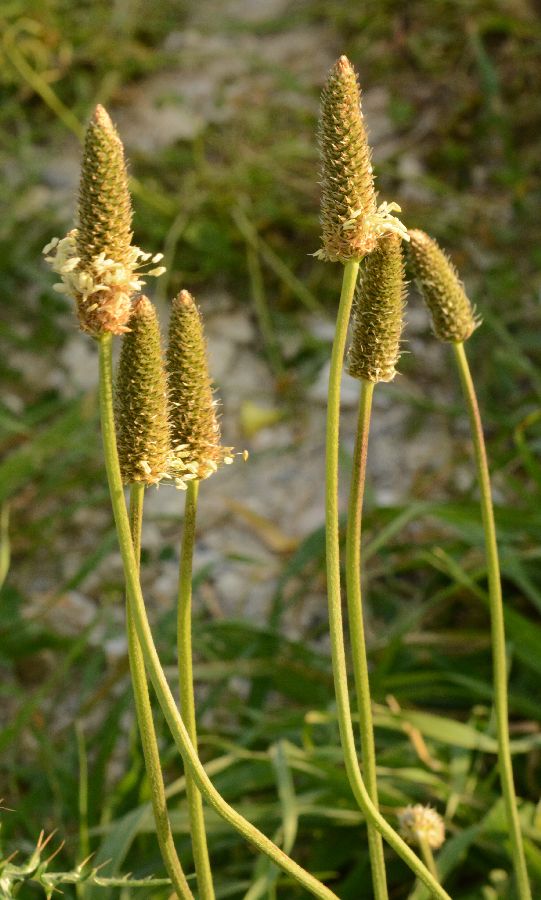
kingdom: Plantae
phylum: Tracheophyta
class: Magnoliopsida
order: Lamiales
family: Plantaginaceae
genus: Plantago
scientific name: Plantago lanceolata
